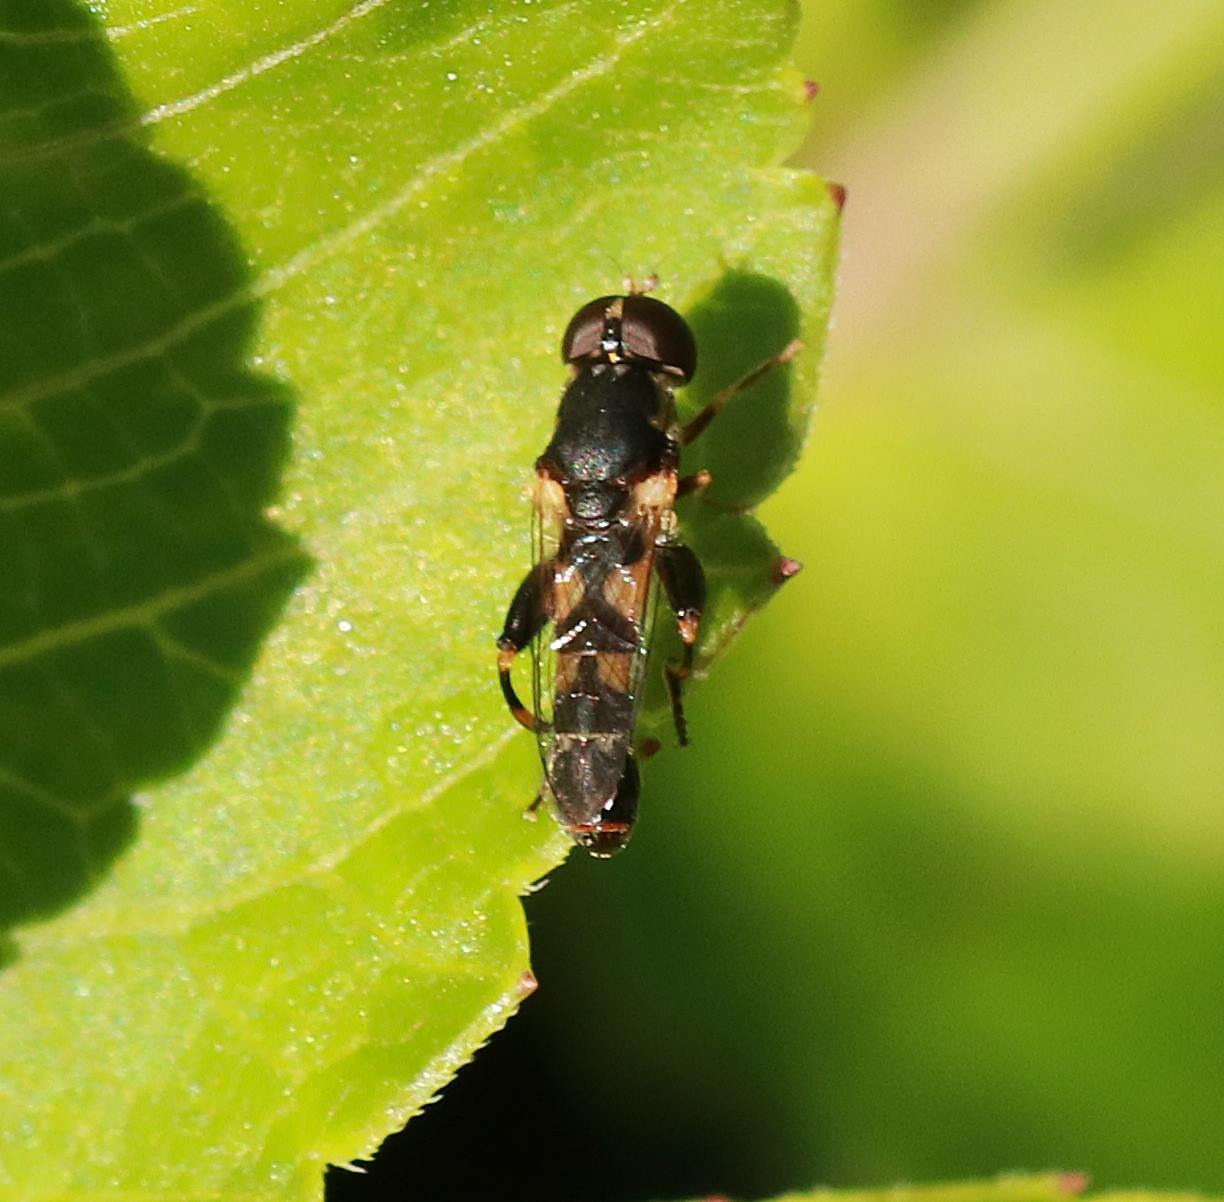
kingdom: Animalia
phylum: Arthropoda
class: Insecta
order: Diptera
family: Syrphidae
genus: Syritta
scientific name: Syritta pipiens
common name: Kompost-svirreflue
